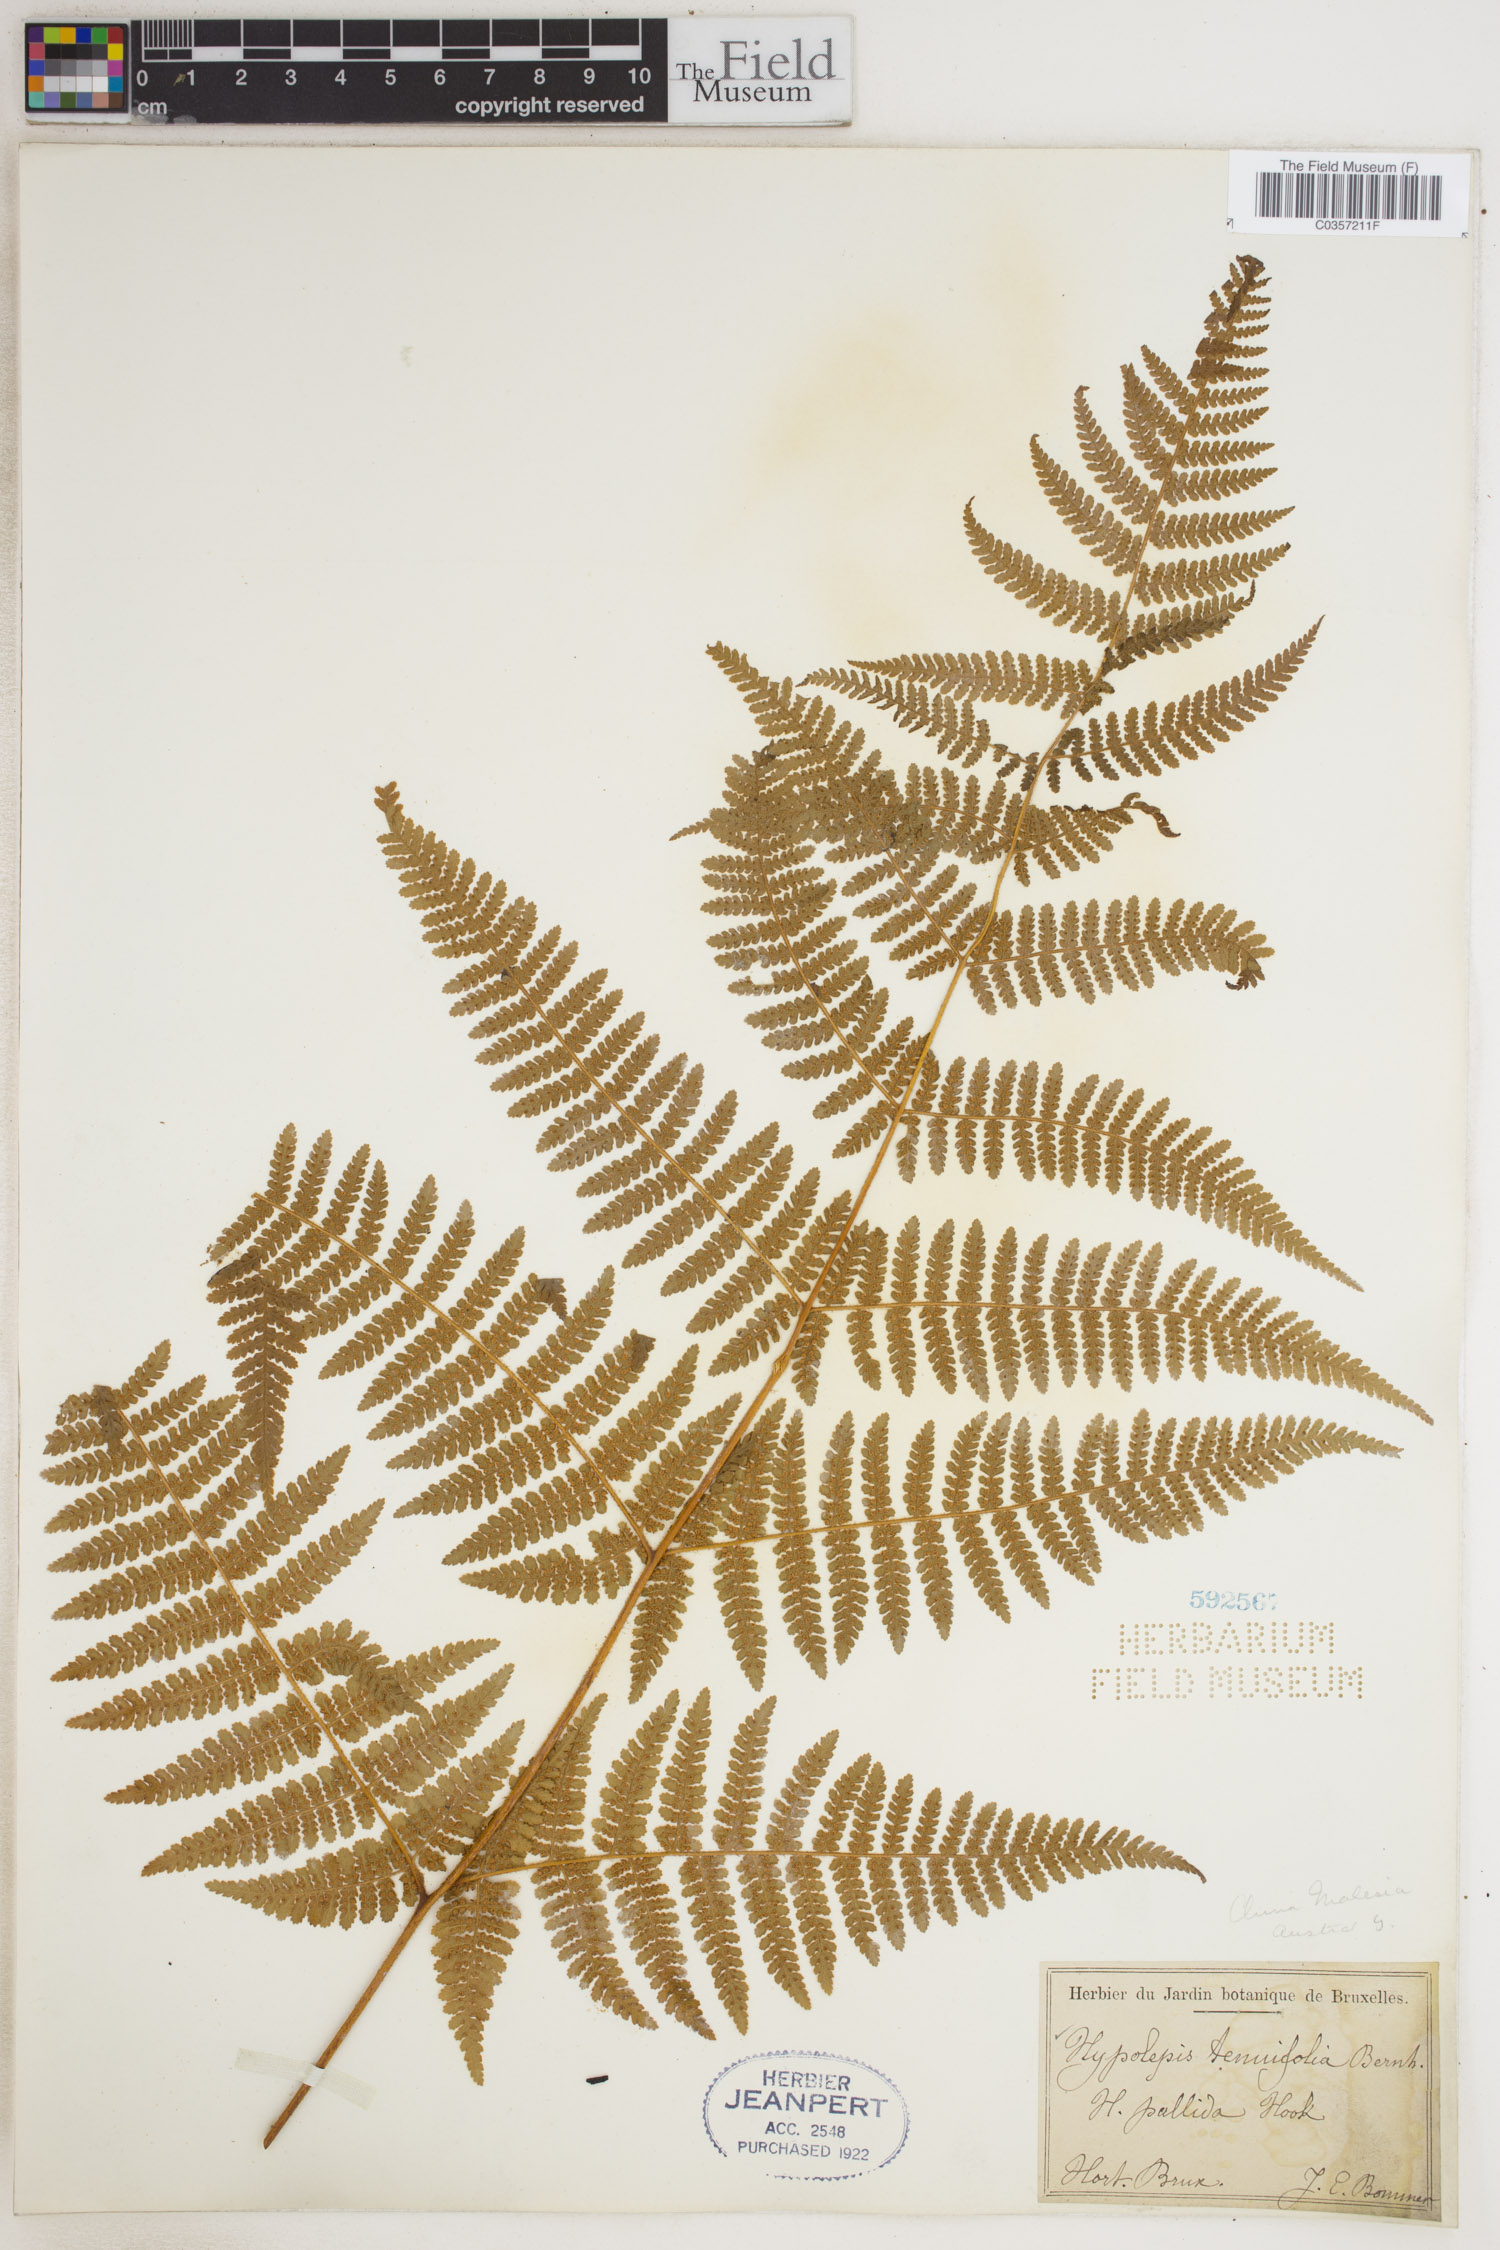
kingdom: Plantae
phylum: Tracheophyta
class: Polypodiopsida
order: Polypodiales
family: Dennstaedtiaceae
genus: Hypolepis
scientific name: Hypolepis pallida
